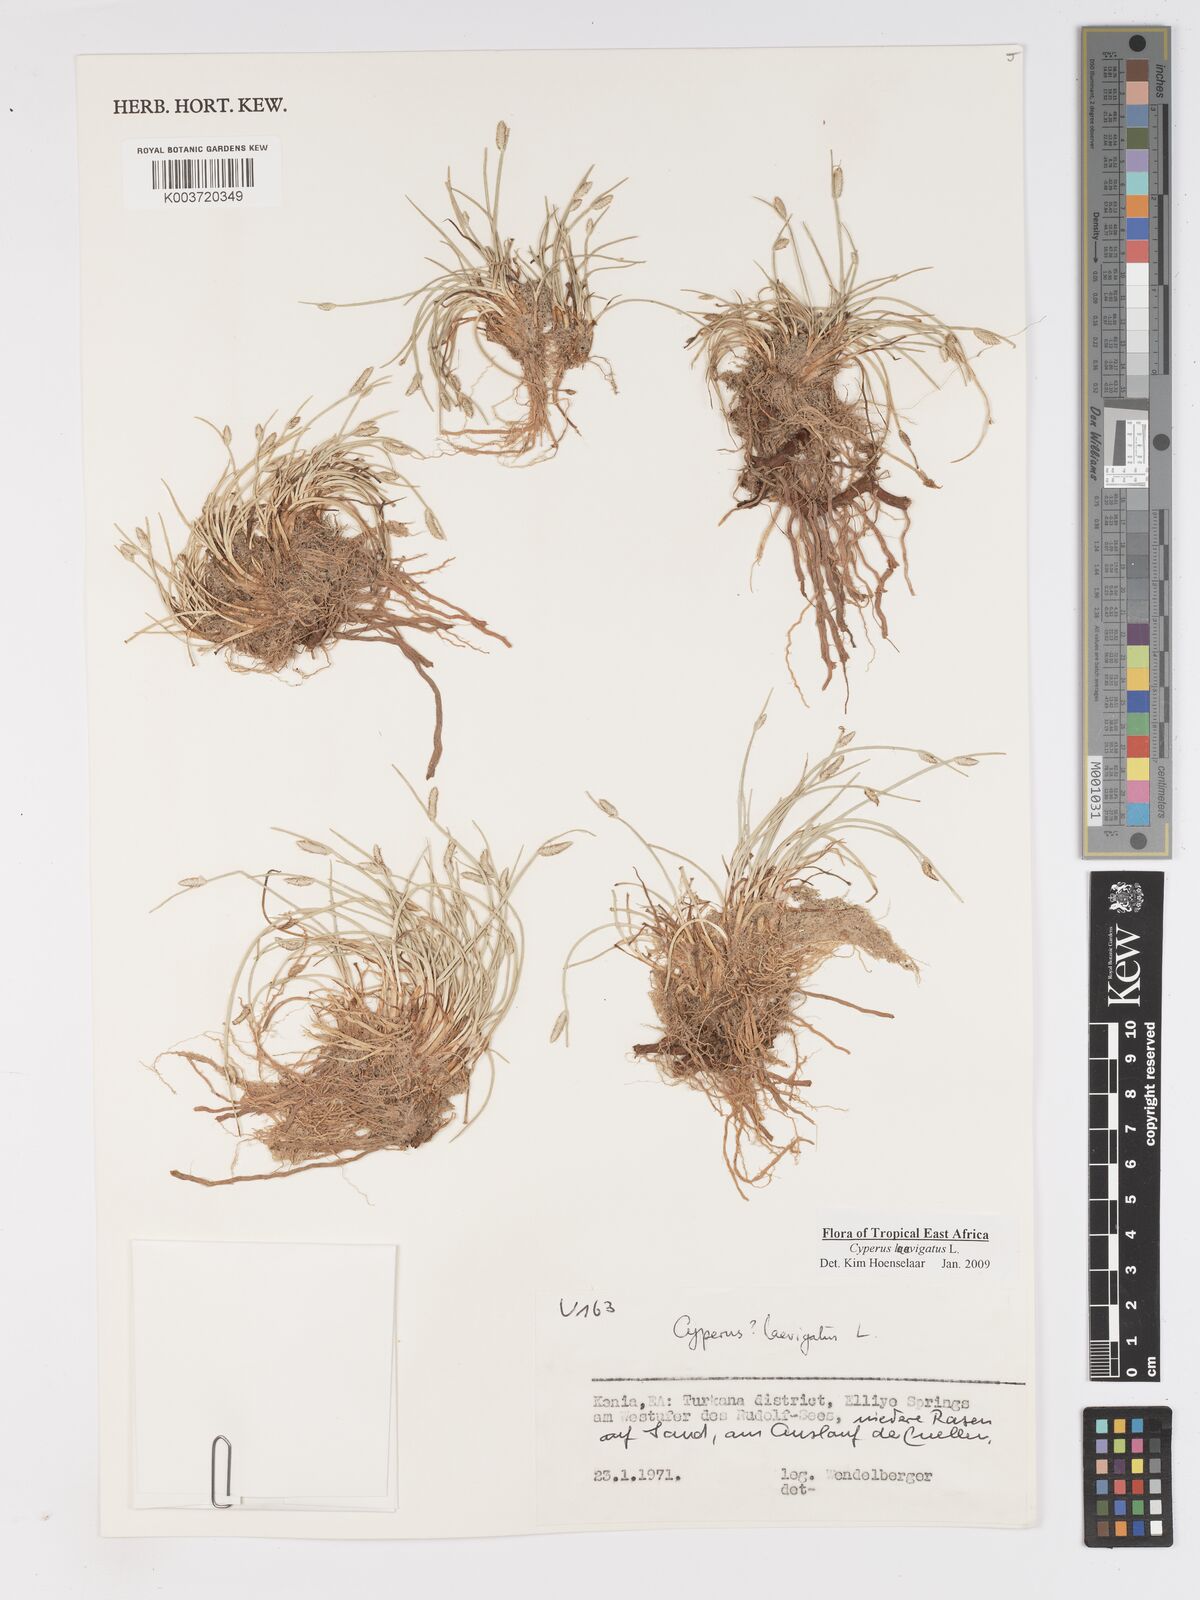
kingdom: Plantae
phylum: Tracheophyta
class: Liliopsida
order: Poales
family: Cyperaceae
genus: Cyperus
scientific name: Cyperus laevigatus
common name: Smooth flat sedge
